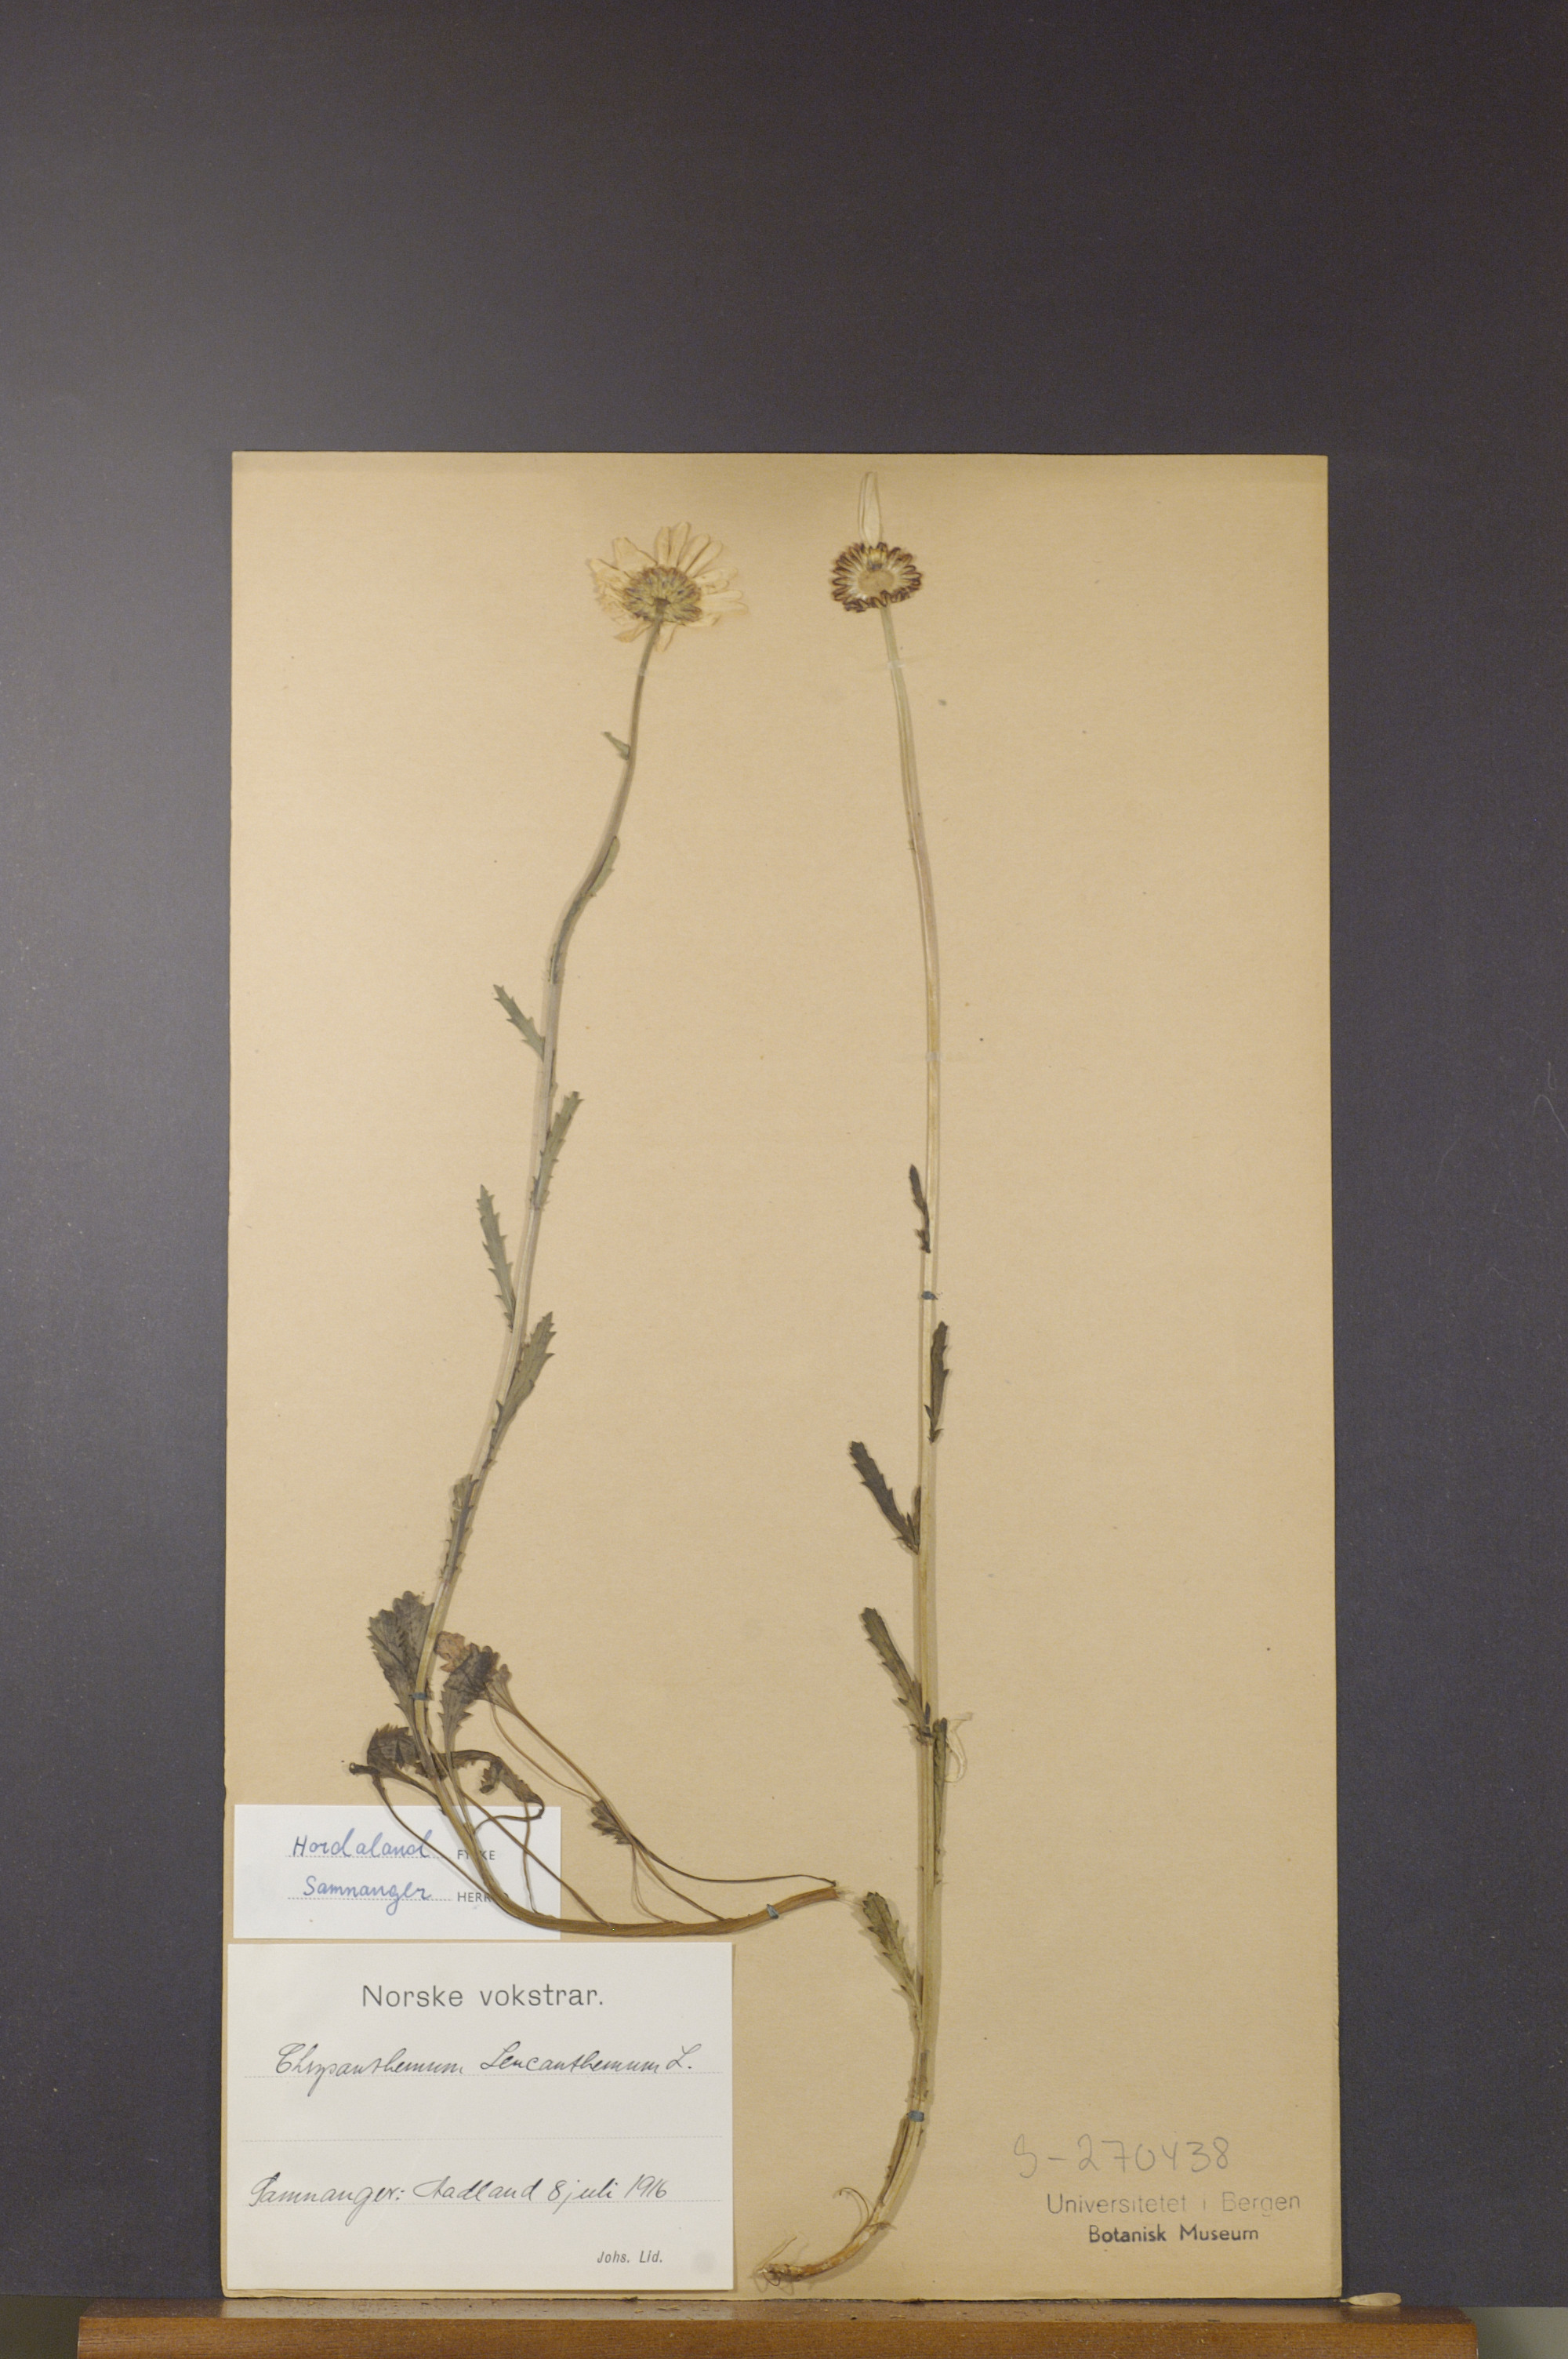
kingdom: Plantae
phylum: Tracheophyta
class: Magnoliopsida
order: Asterales
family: Asteraceae
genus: Leucanthemum
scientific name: Leucanthemum vulgare
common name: Oxeye daisy
